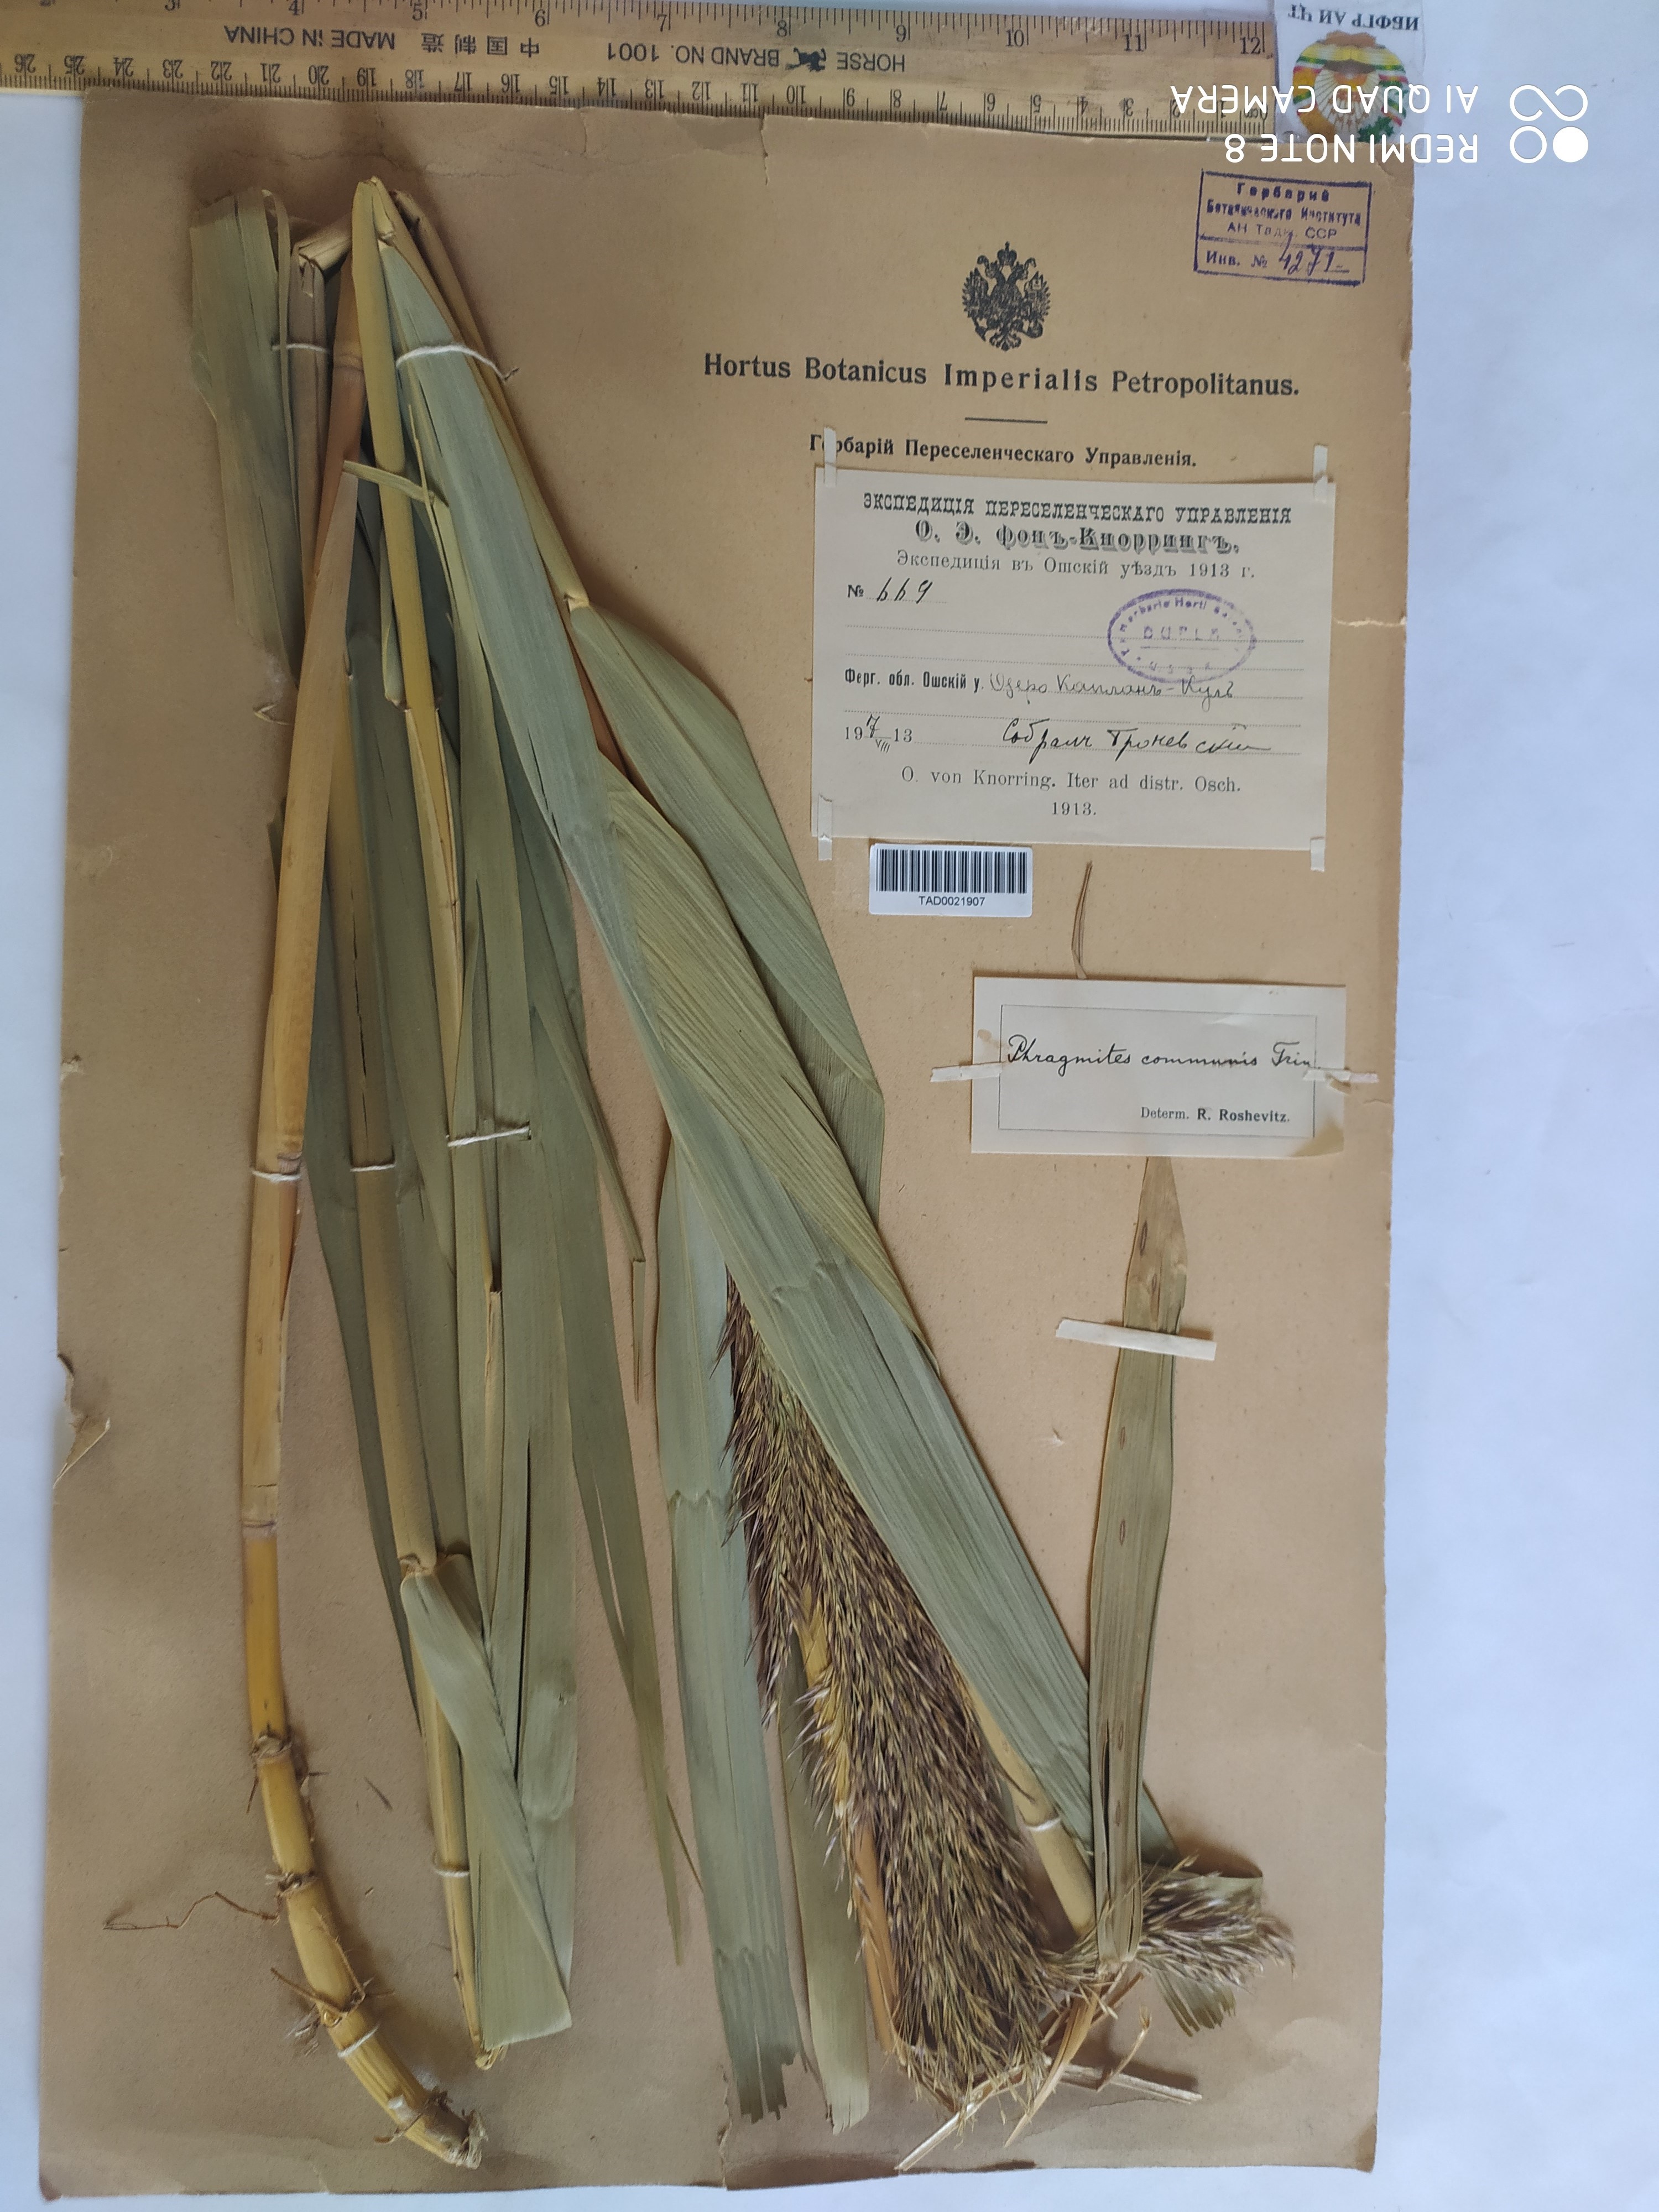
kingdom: Plantae
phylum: Tracheophyta
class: Liliopsida
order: Poales
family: Poaceae
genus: Phragmites
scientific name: Phragmites australis
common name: Common reed
